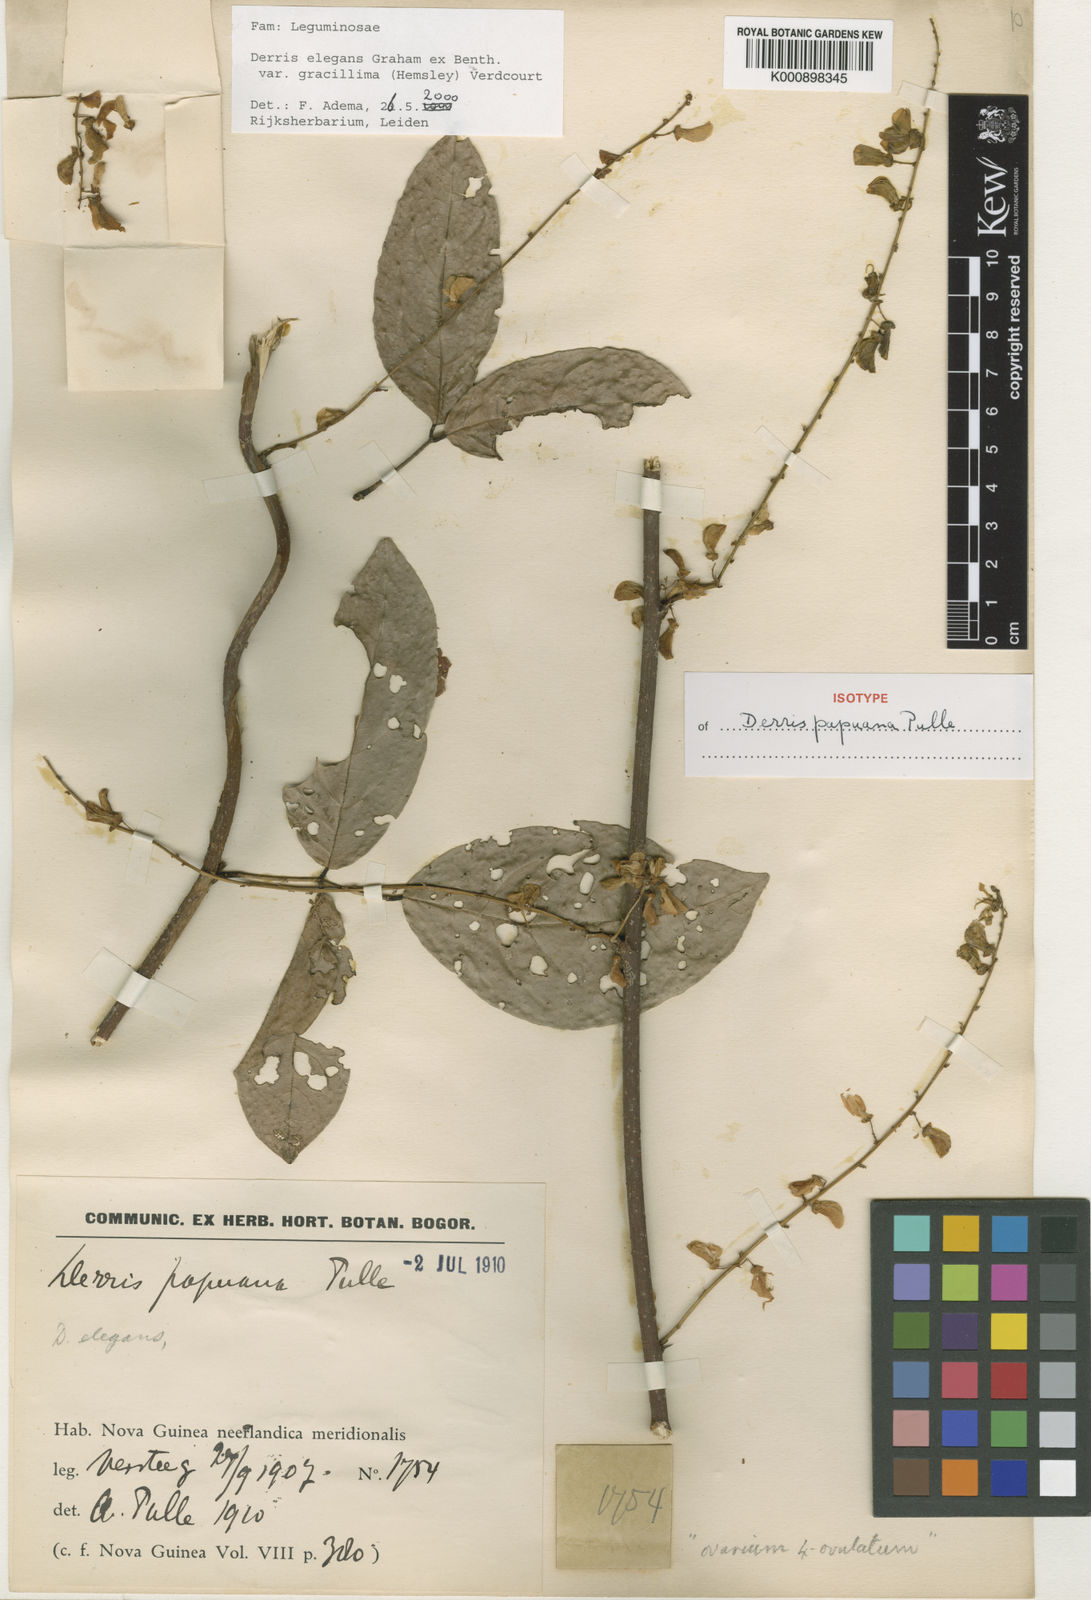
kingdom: Plantae
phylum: Tracheophyta
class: Magnoliopsida
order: Fabales
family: Fabaceae
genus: Derris
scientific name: Derris elegans
